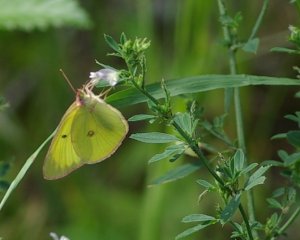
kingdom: Animalia
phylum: Arthropoda
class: Insecta
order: Lepidoptera
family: Pieridae
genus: Colias
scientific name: Colias interior
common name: Pink-edged Sulphur
